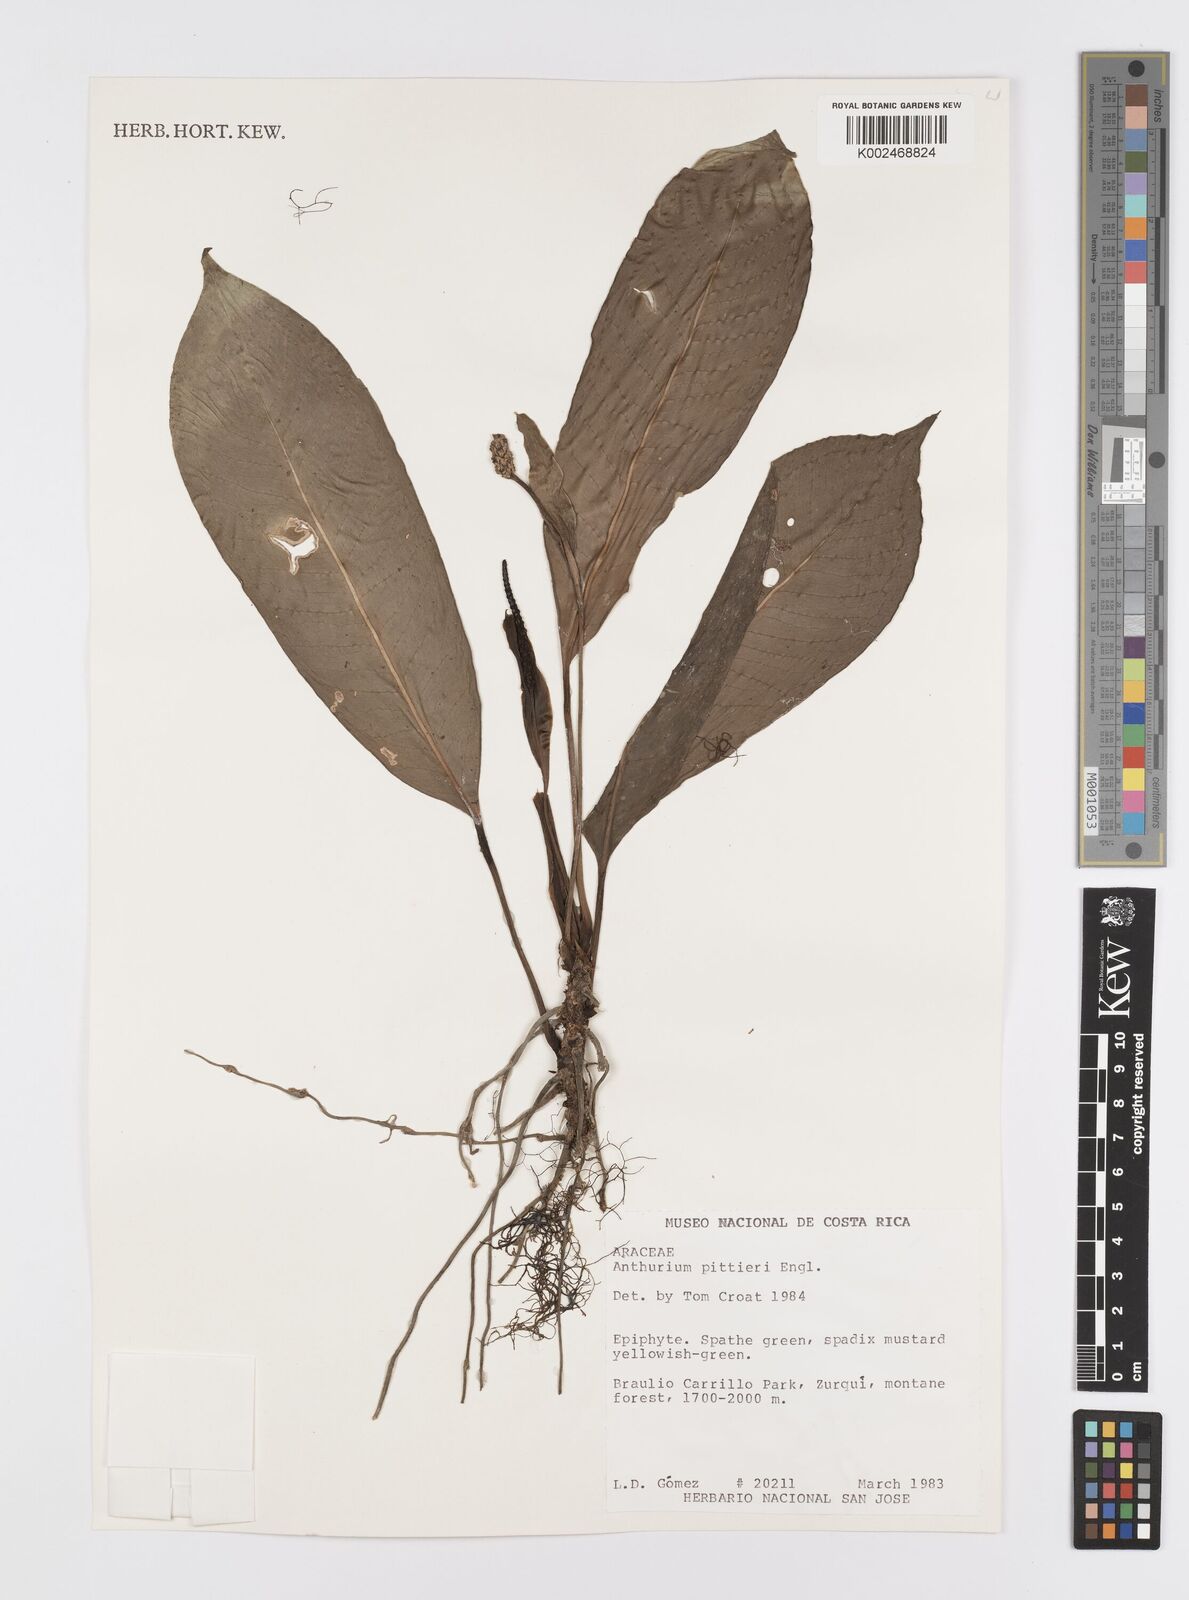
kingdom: Plantae
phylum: Tracheophyta
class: Liliopsida
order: Alismatales
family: Araceae
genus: Anthurium
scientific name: Anthurium pittieri
